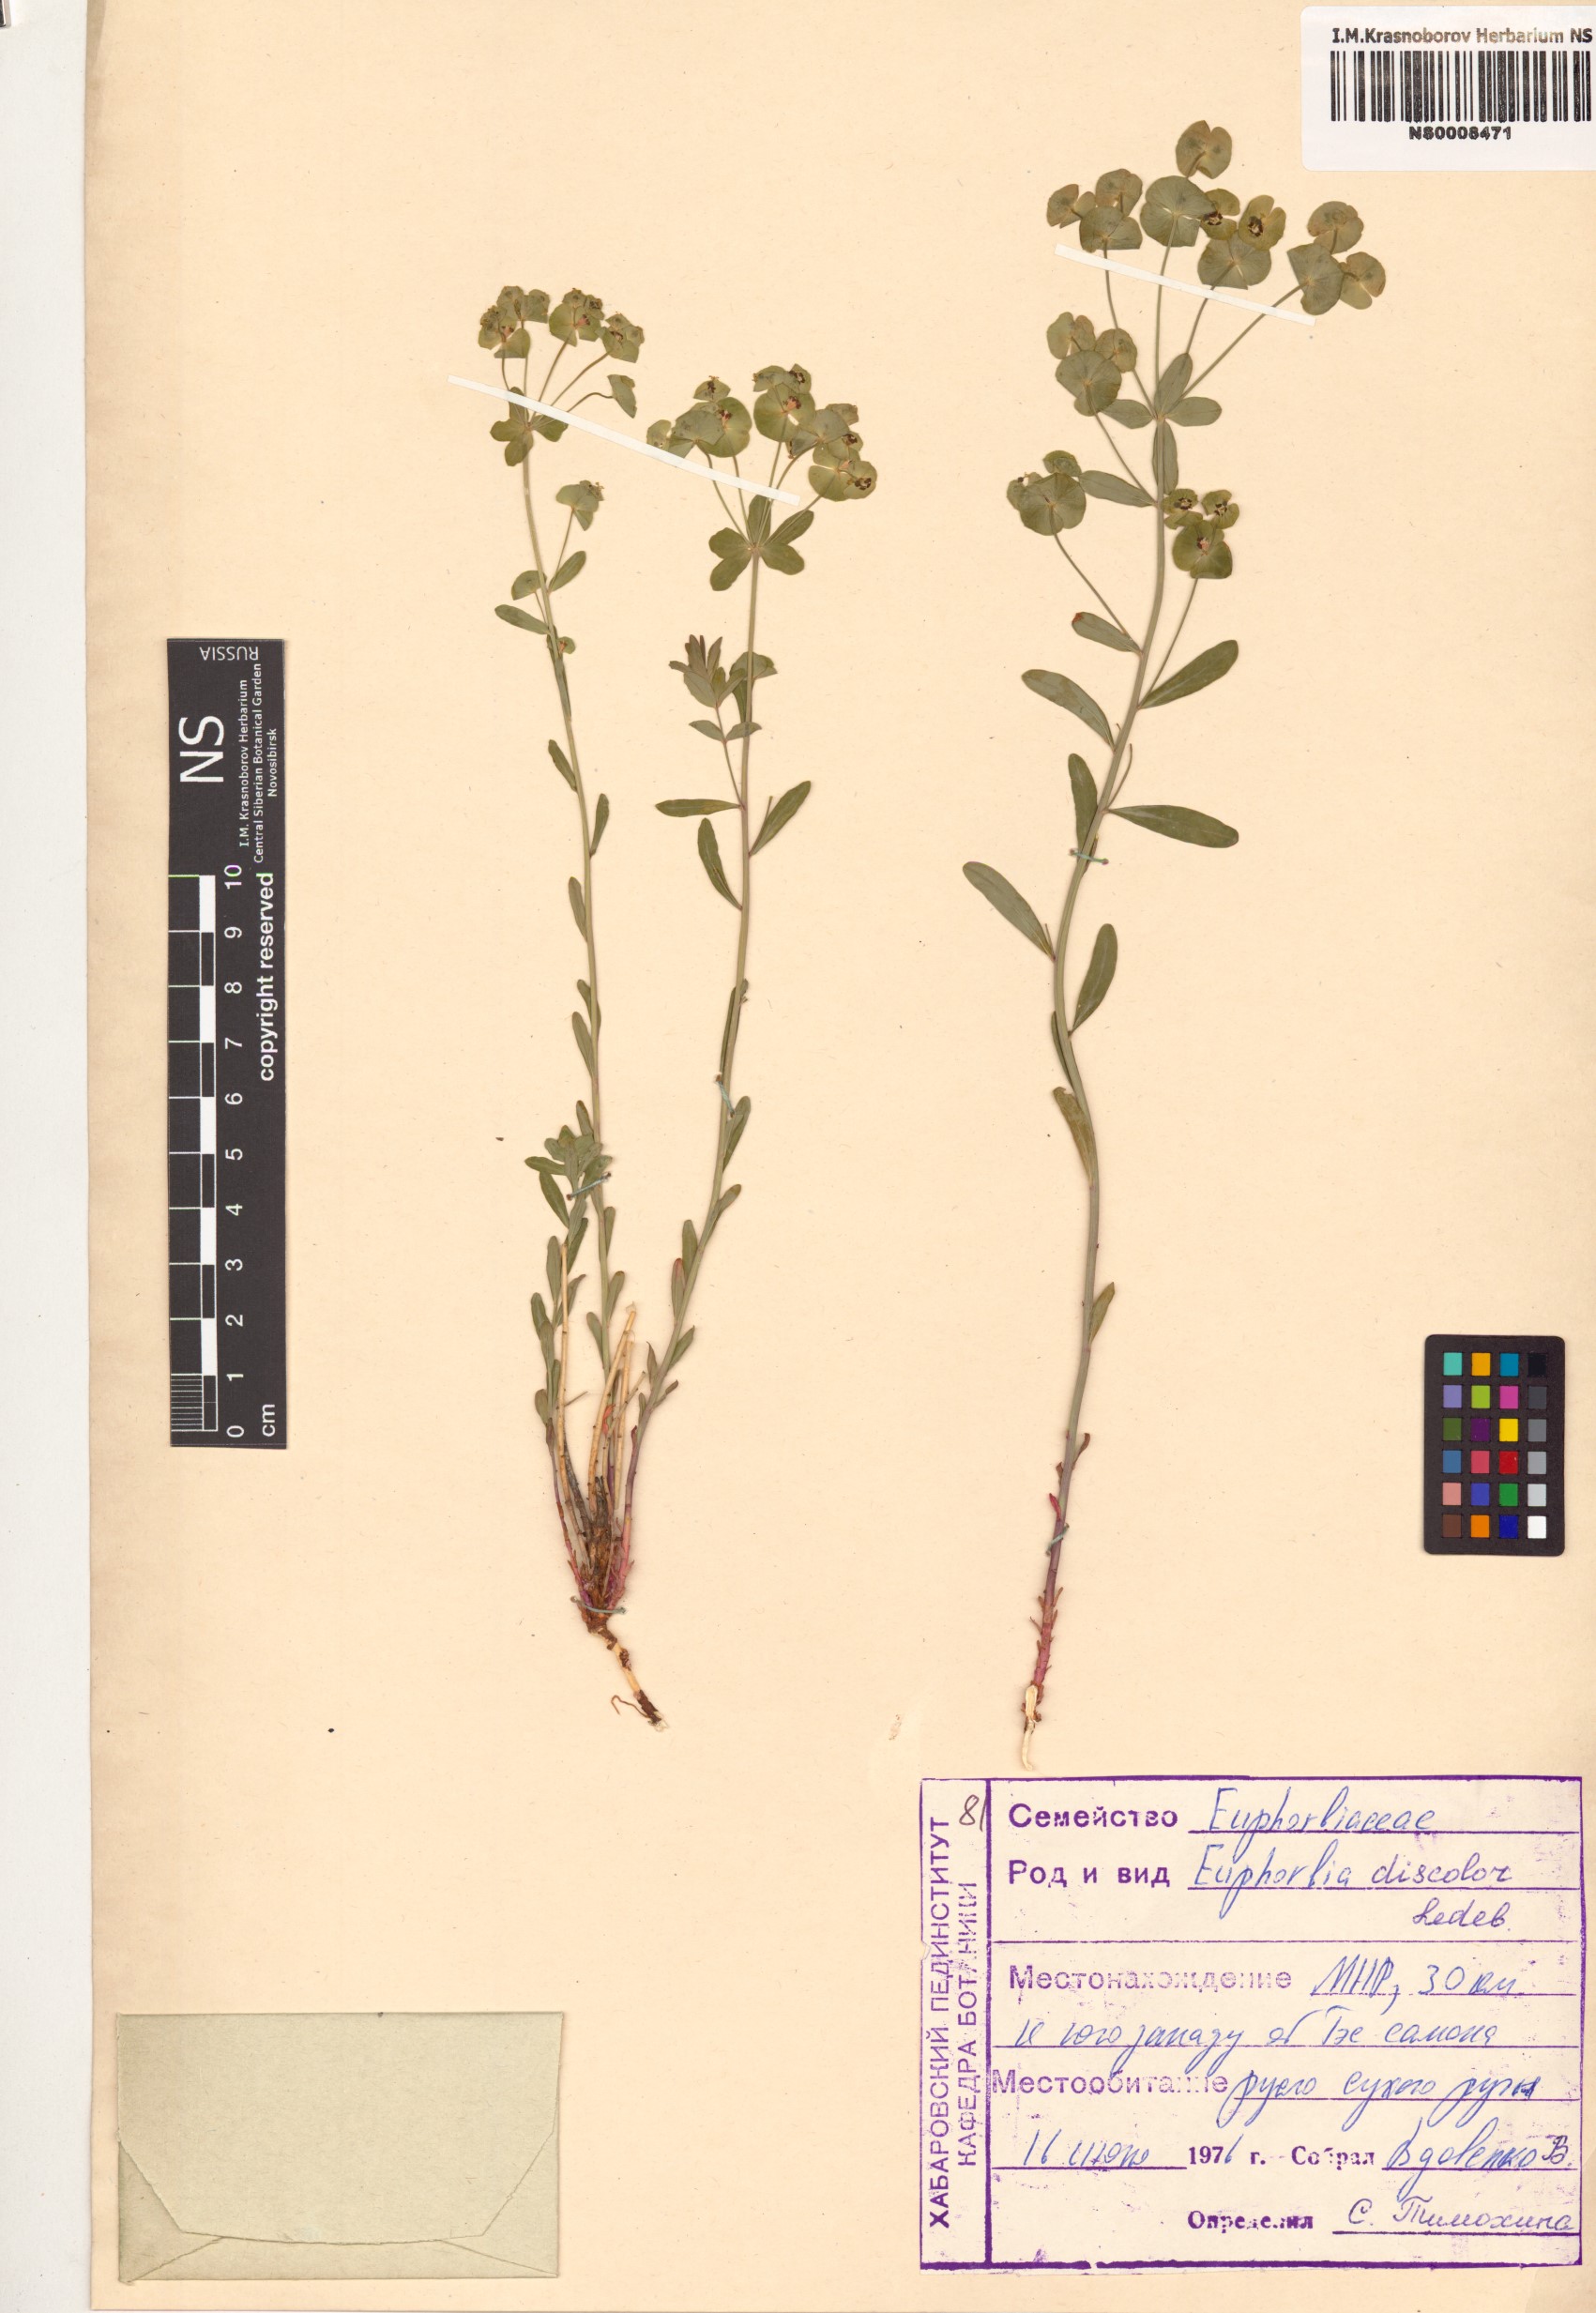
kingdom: Plantae
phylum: Tracheophyta
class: Magnoliopsida
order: Malpighiales
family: Euphorbiaceae
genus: Euphorbia
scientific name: Euphorbia esula
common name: Leafy spurge
